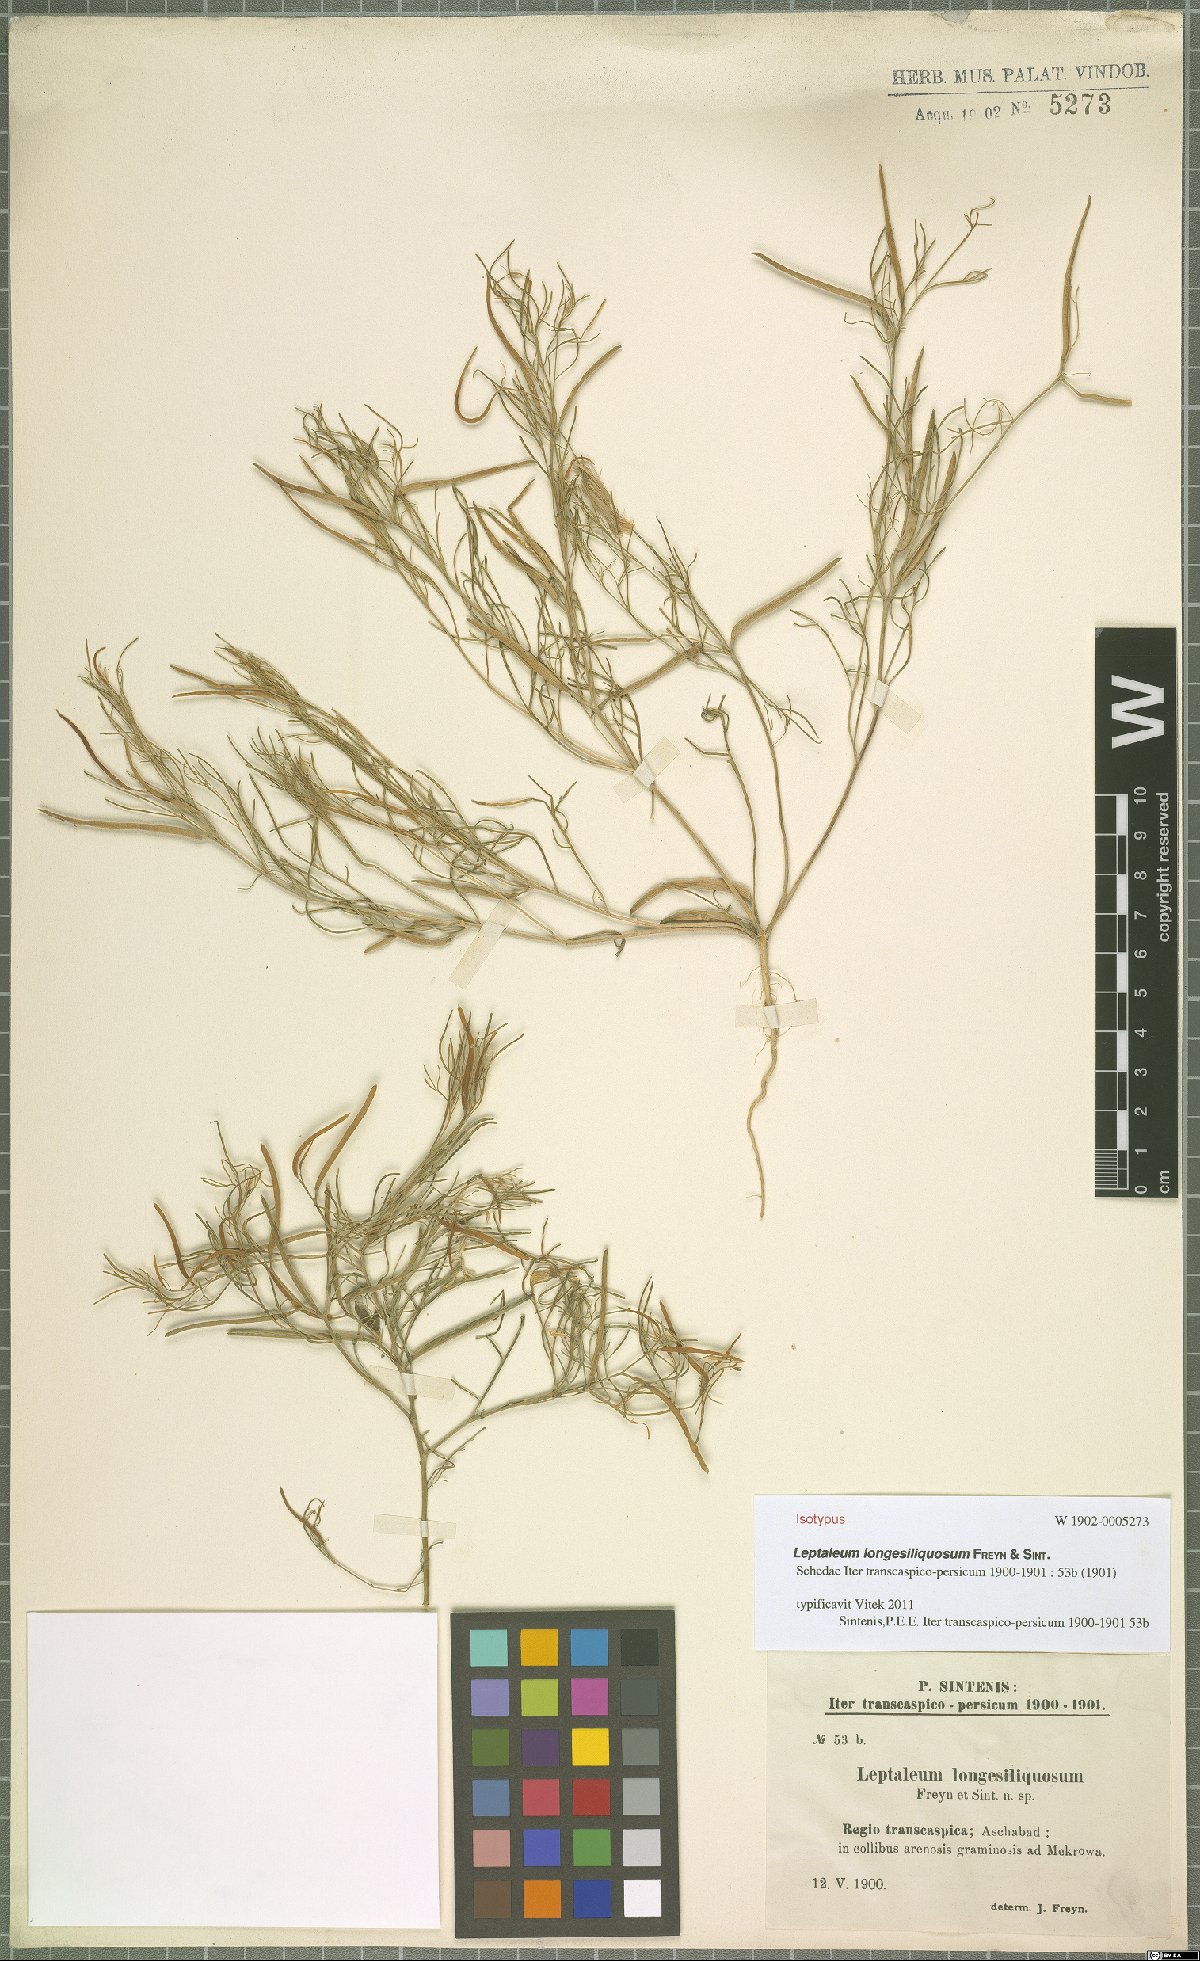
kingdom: Plantae
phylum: Tracheophyta
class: Magnoliopsida
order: Brassicales
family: Brassicaceae
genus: Leptaleum
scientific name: Leptaleum filifolium
